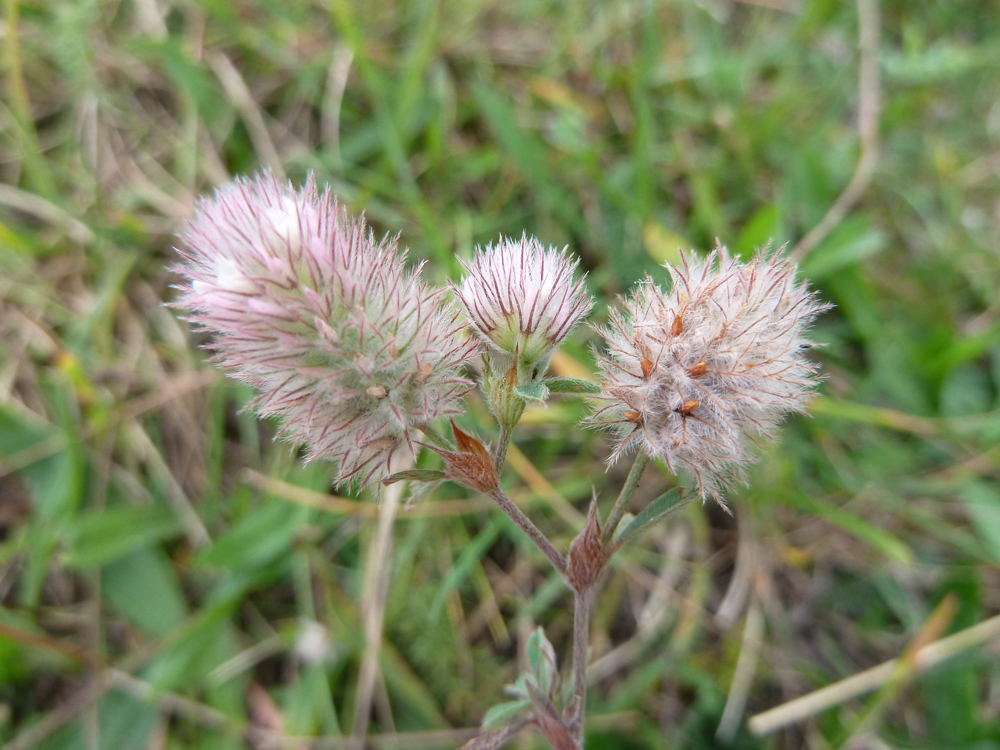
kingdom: Plantae
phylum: Tracheophyta
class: Magnoliopsida
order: Fabales
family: Fabaceae
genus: Trifolium
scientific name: Trifolium arvense
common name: Hare's-foot clover
